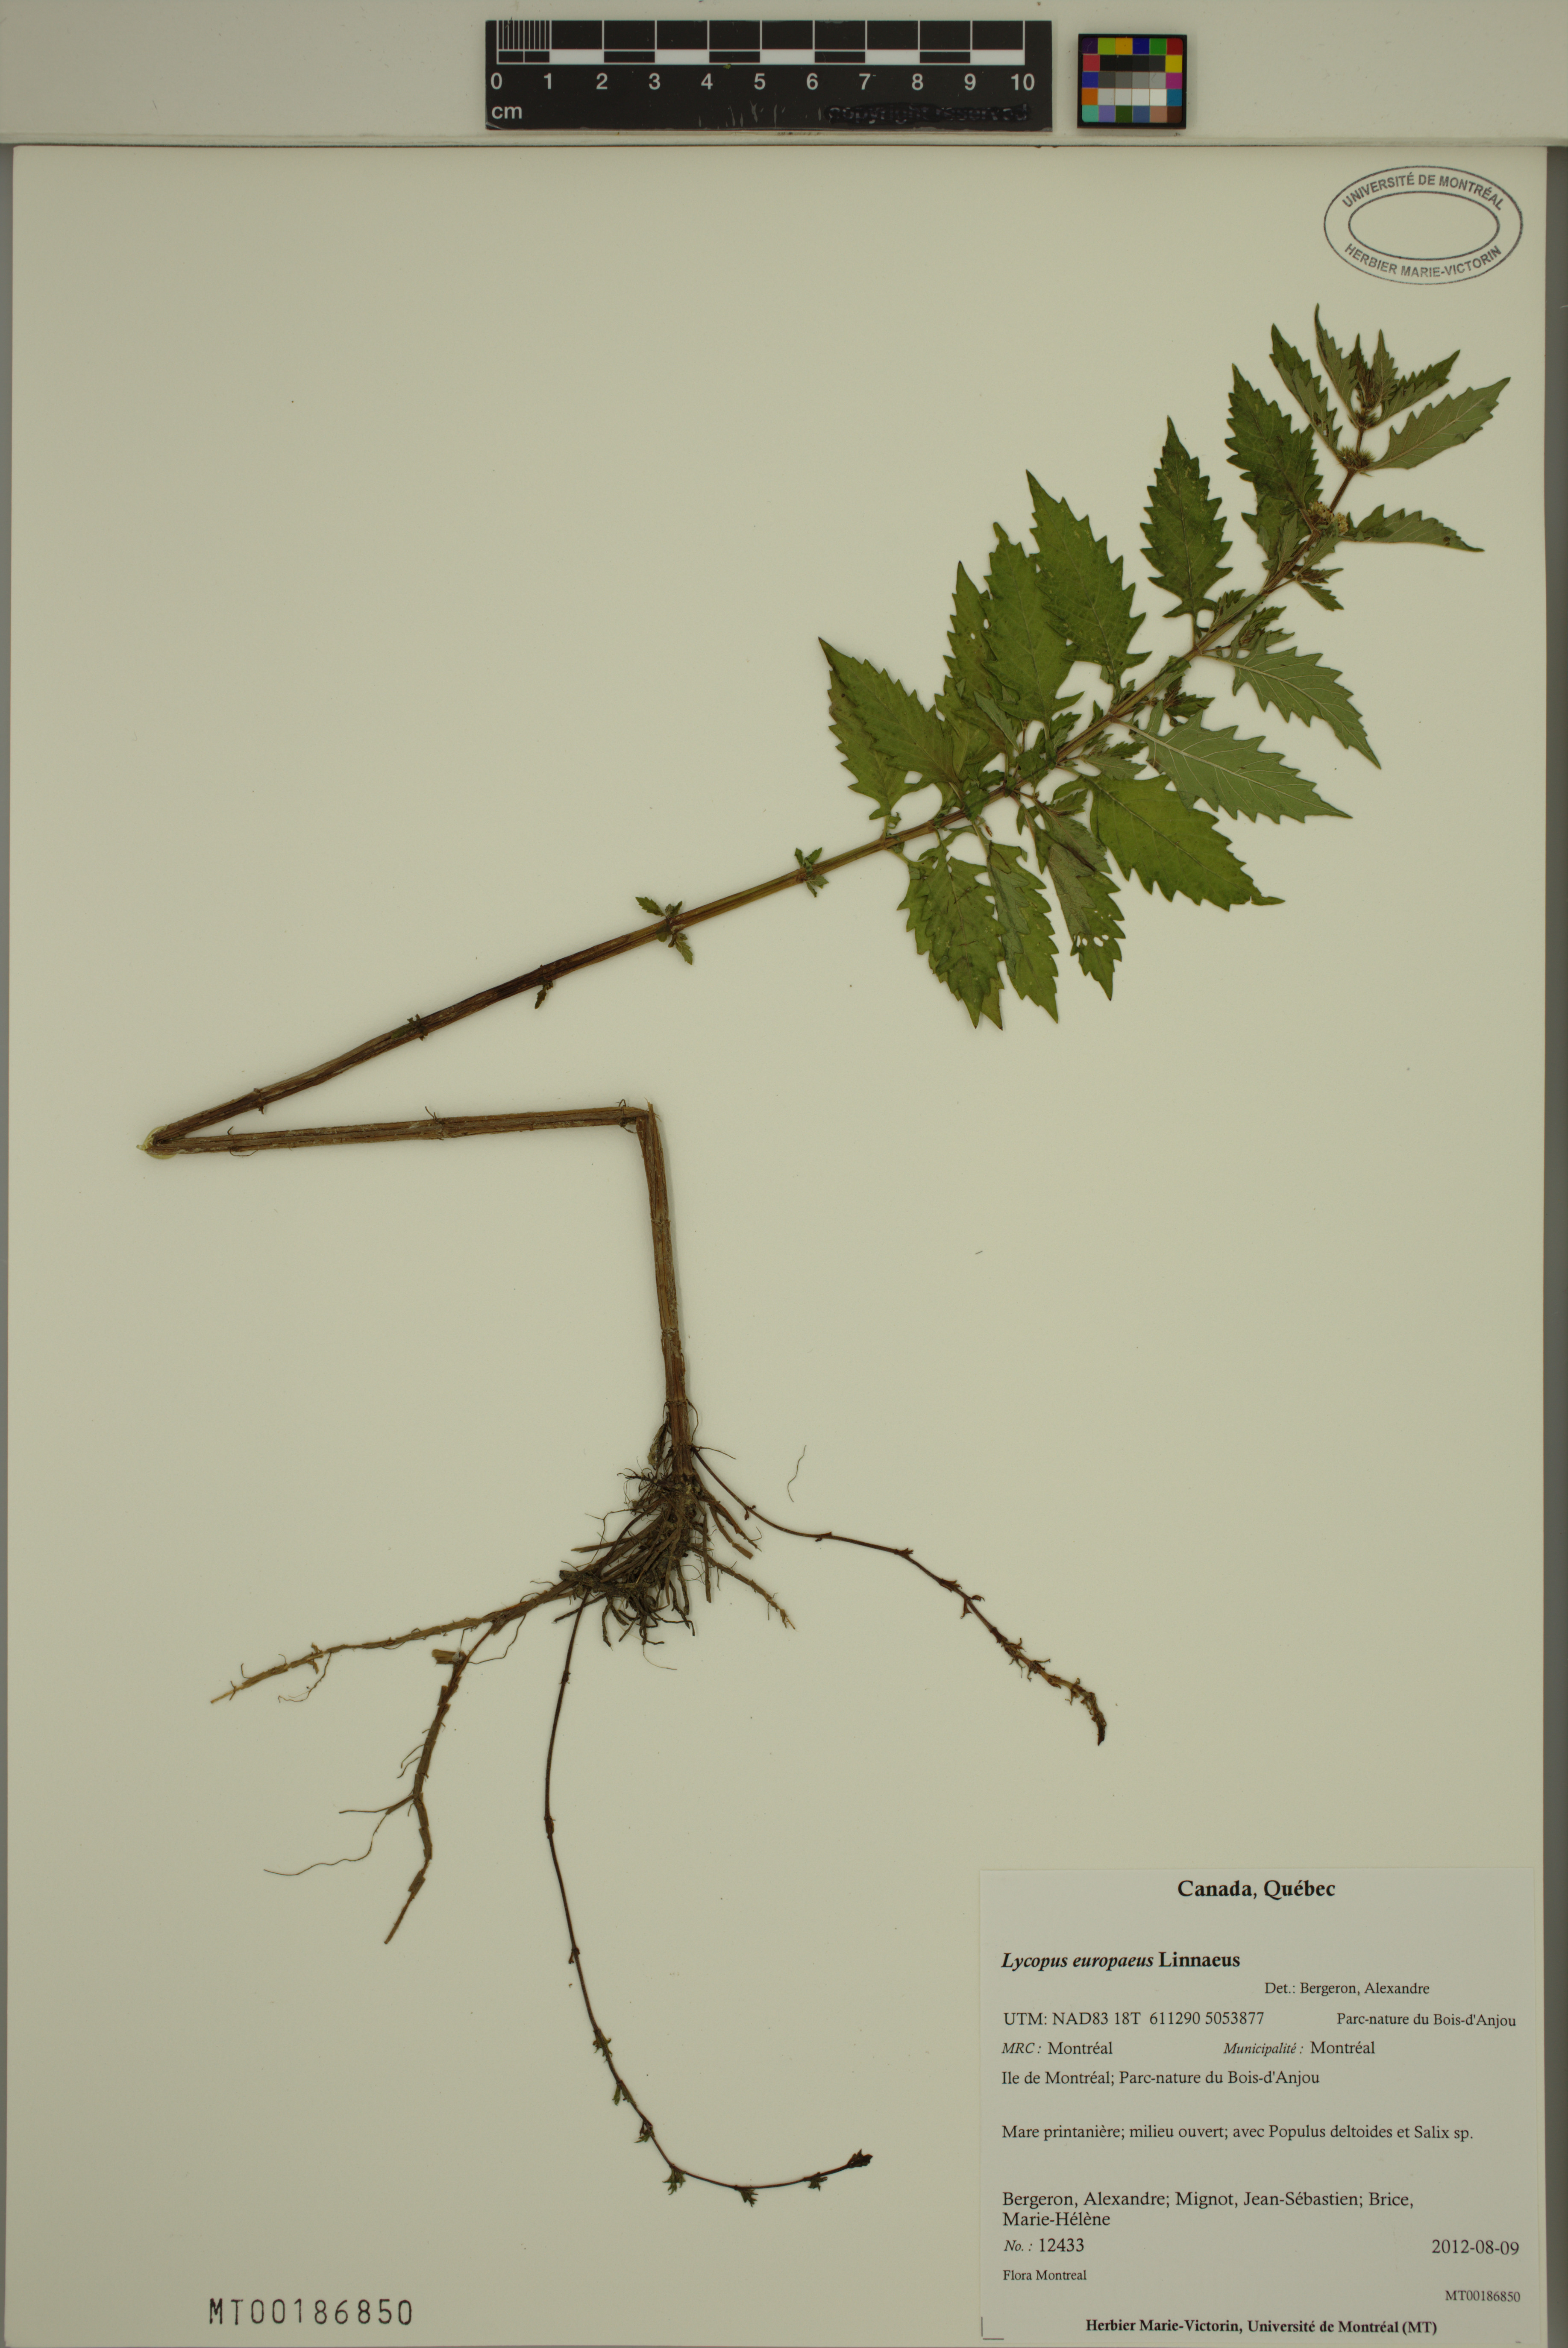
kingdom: Plantae
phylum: Tracheophyta
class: Magnoliopsida
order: Lamiales
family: Lamiaceae
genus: Lycopus
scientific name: Lycopus europaeus
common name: European bugleweed
